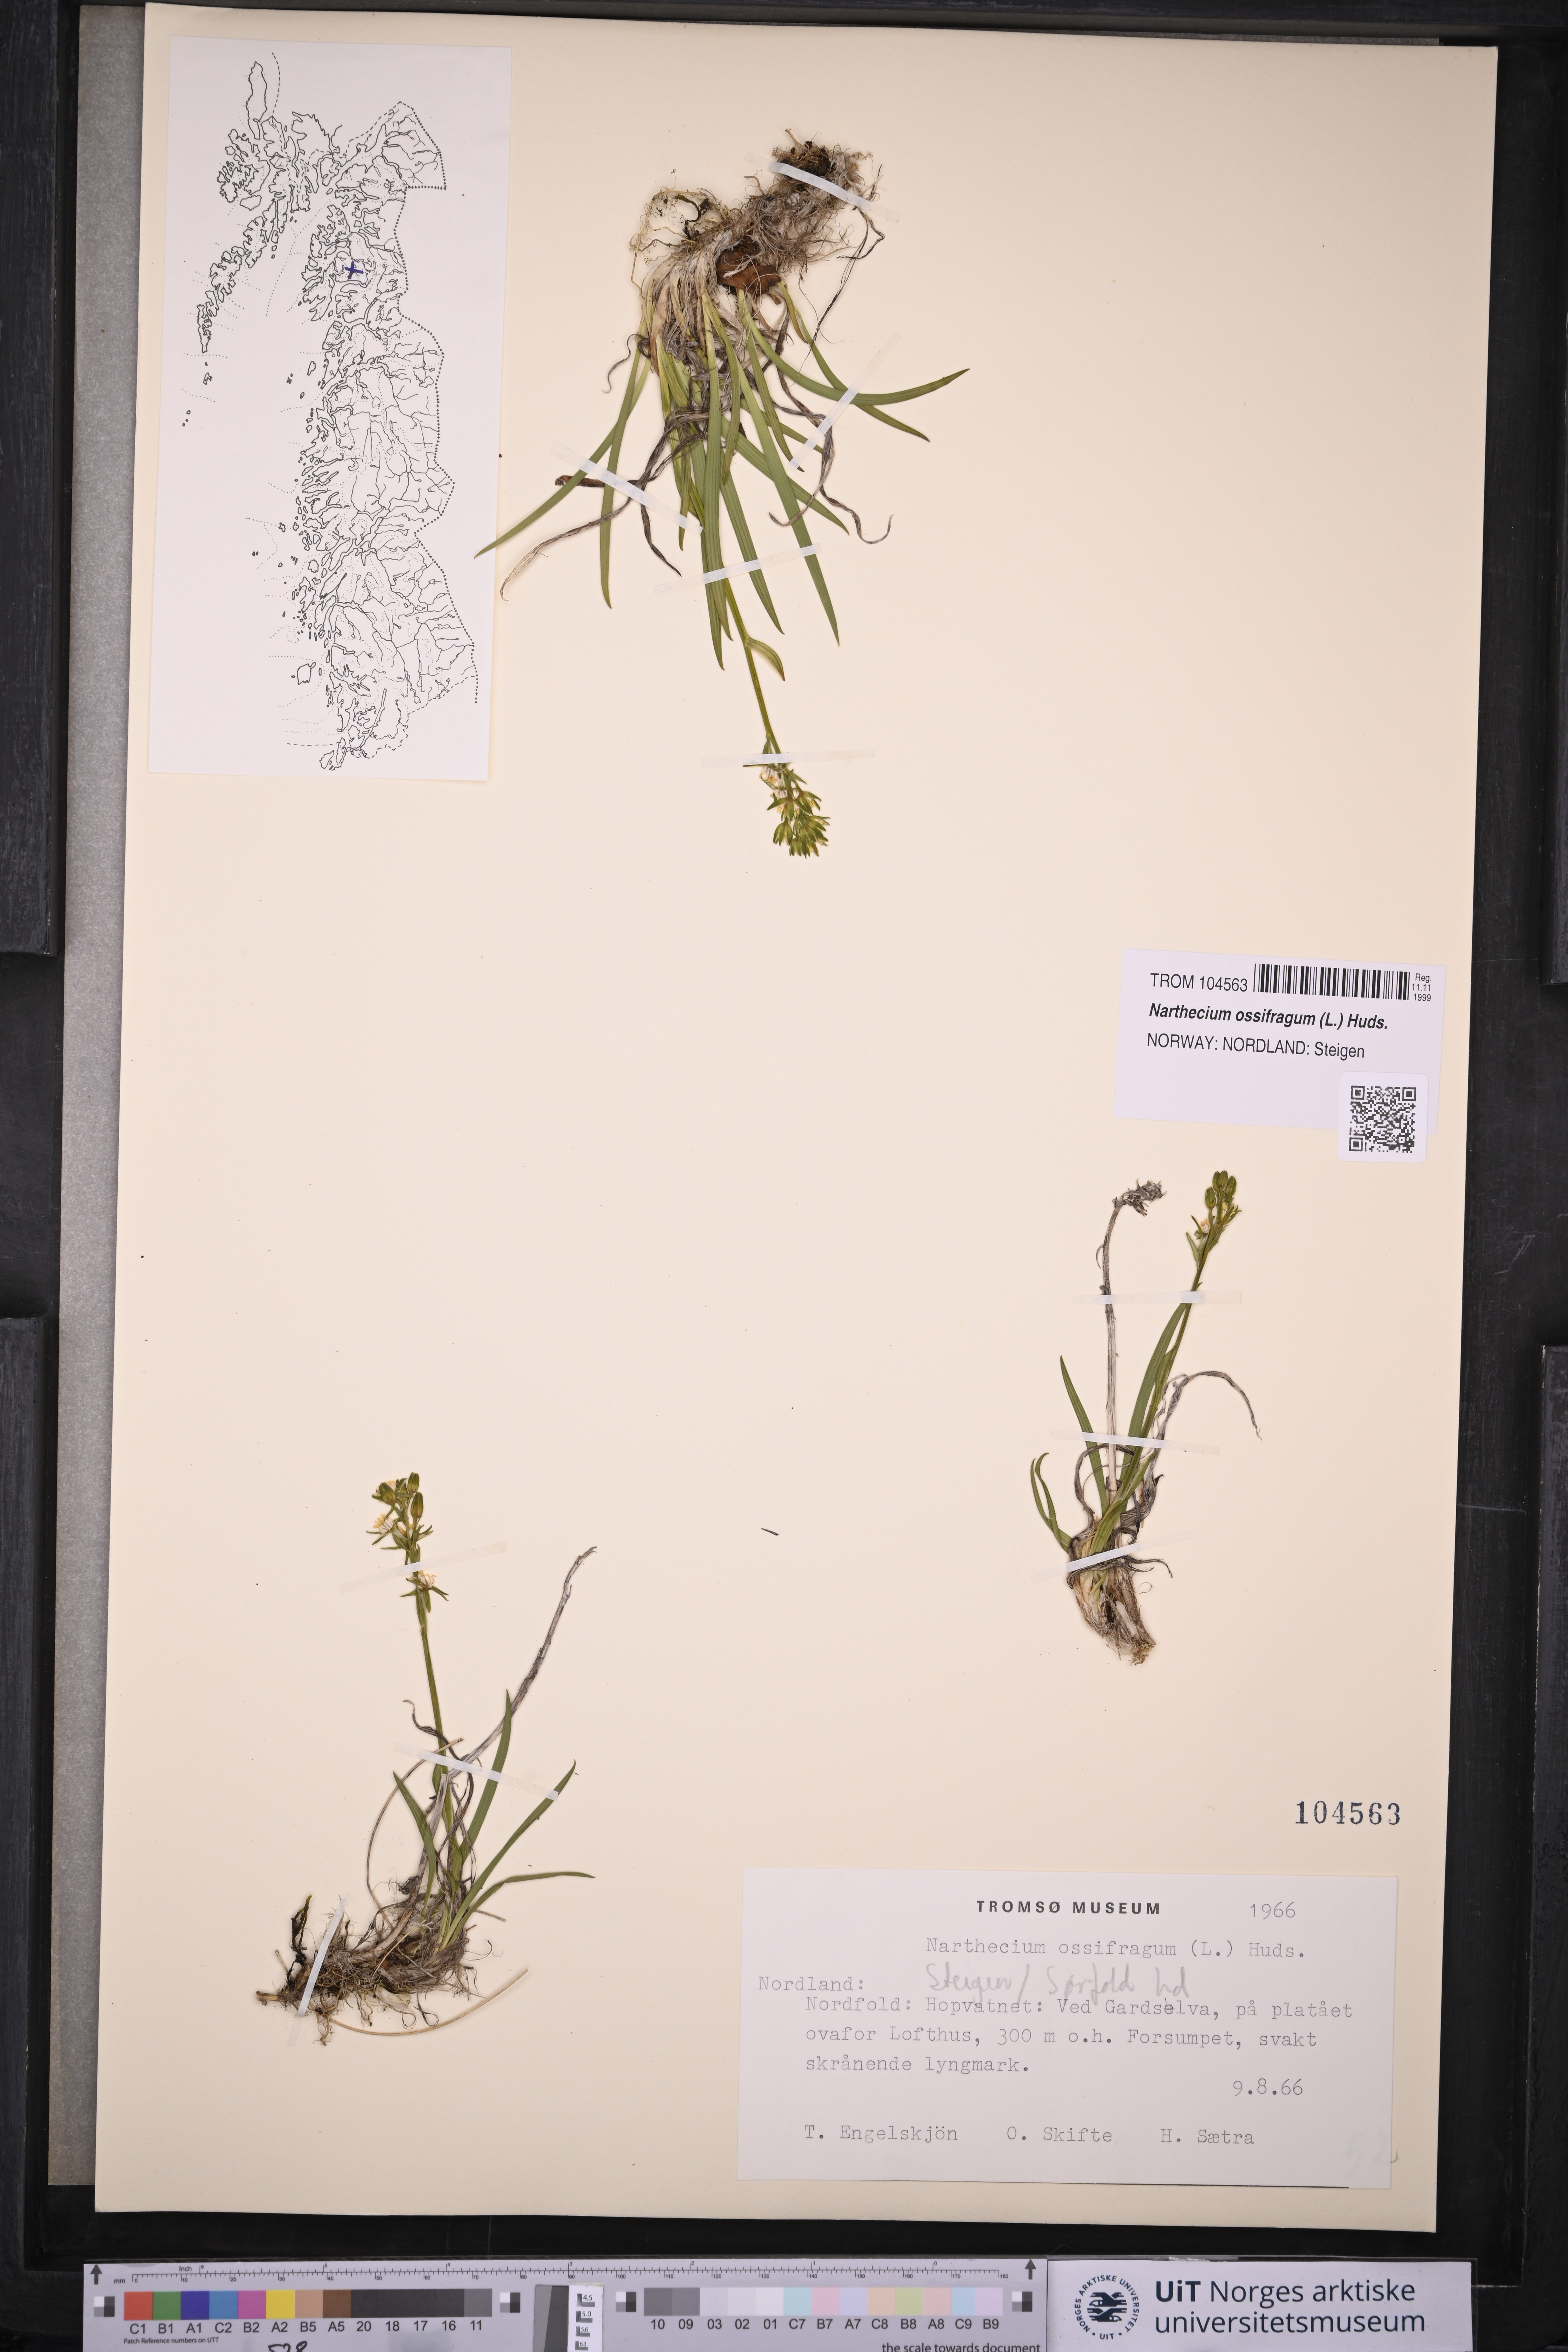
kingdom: Plantae
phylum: Tracheophyta
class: Liliopsida
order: Dioscoreales
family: Nartheciaceae
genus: Narthecium
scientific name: Narthecium ossifragum
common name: Bog asphodel
